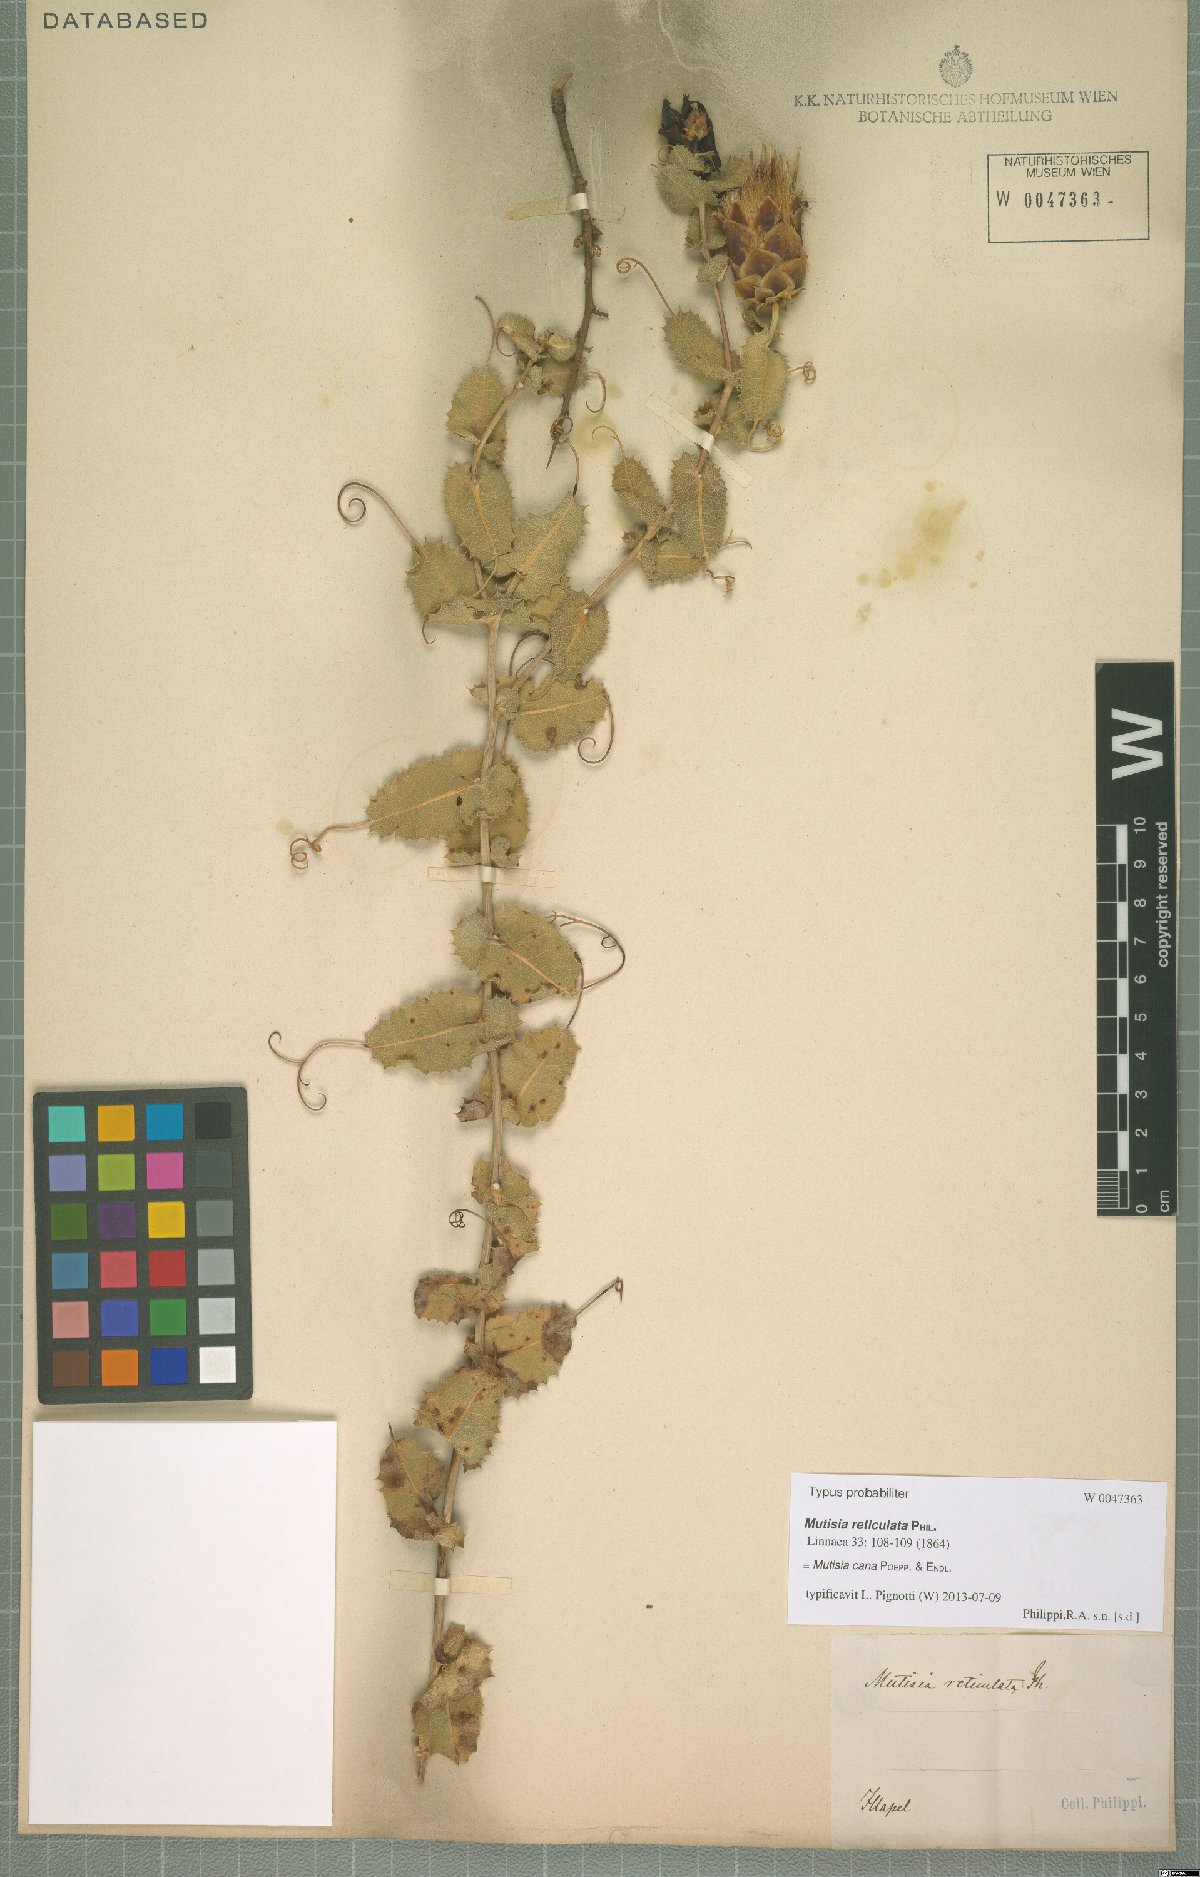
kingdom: Plantae
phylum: Tracheophyta
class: Magnoliopsida
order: Asterales
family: Asteraceae
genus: Mutisia
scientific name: Mutisia cana
